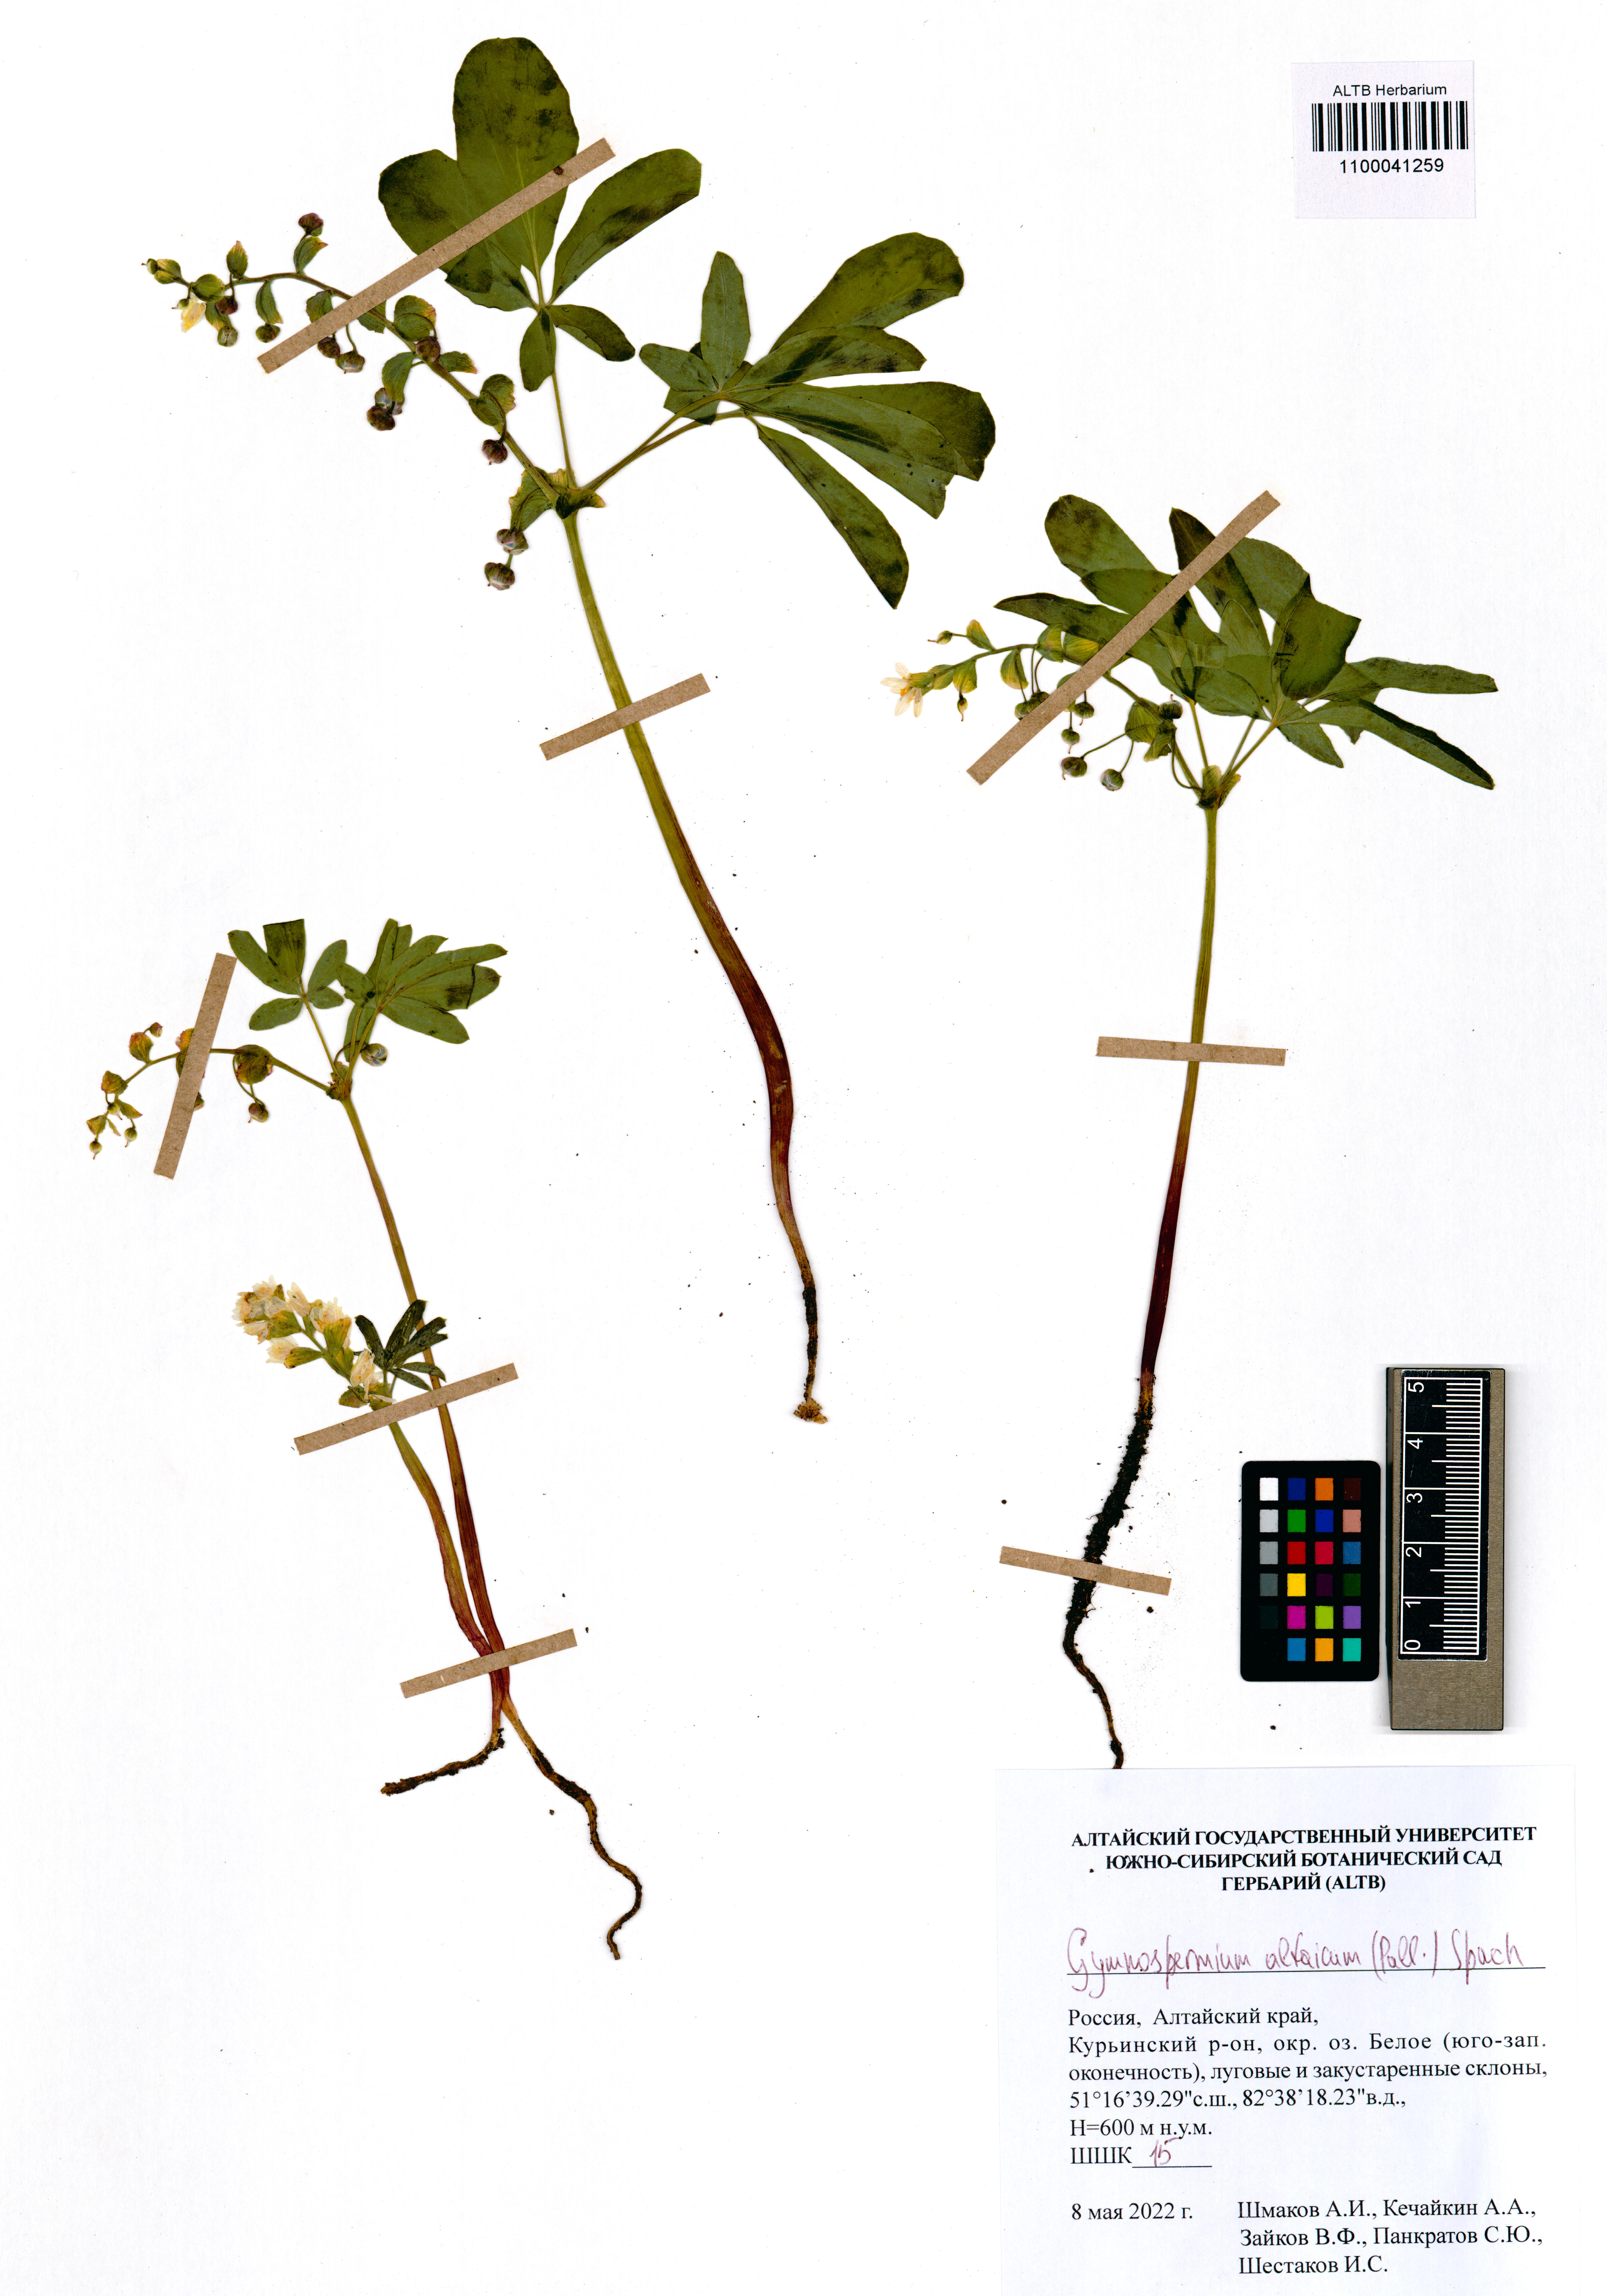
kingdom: Plantae
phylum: Tracheophyta
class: Magnoliopsida
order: Ranunculales
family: Berberidaceae
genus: Gymnospermium
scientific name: Gymnospermium altaicum
